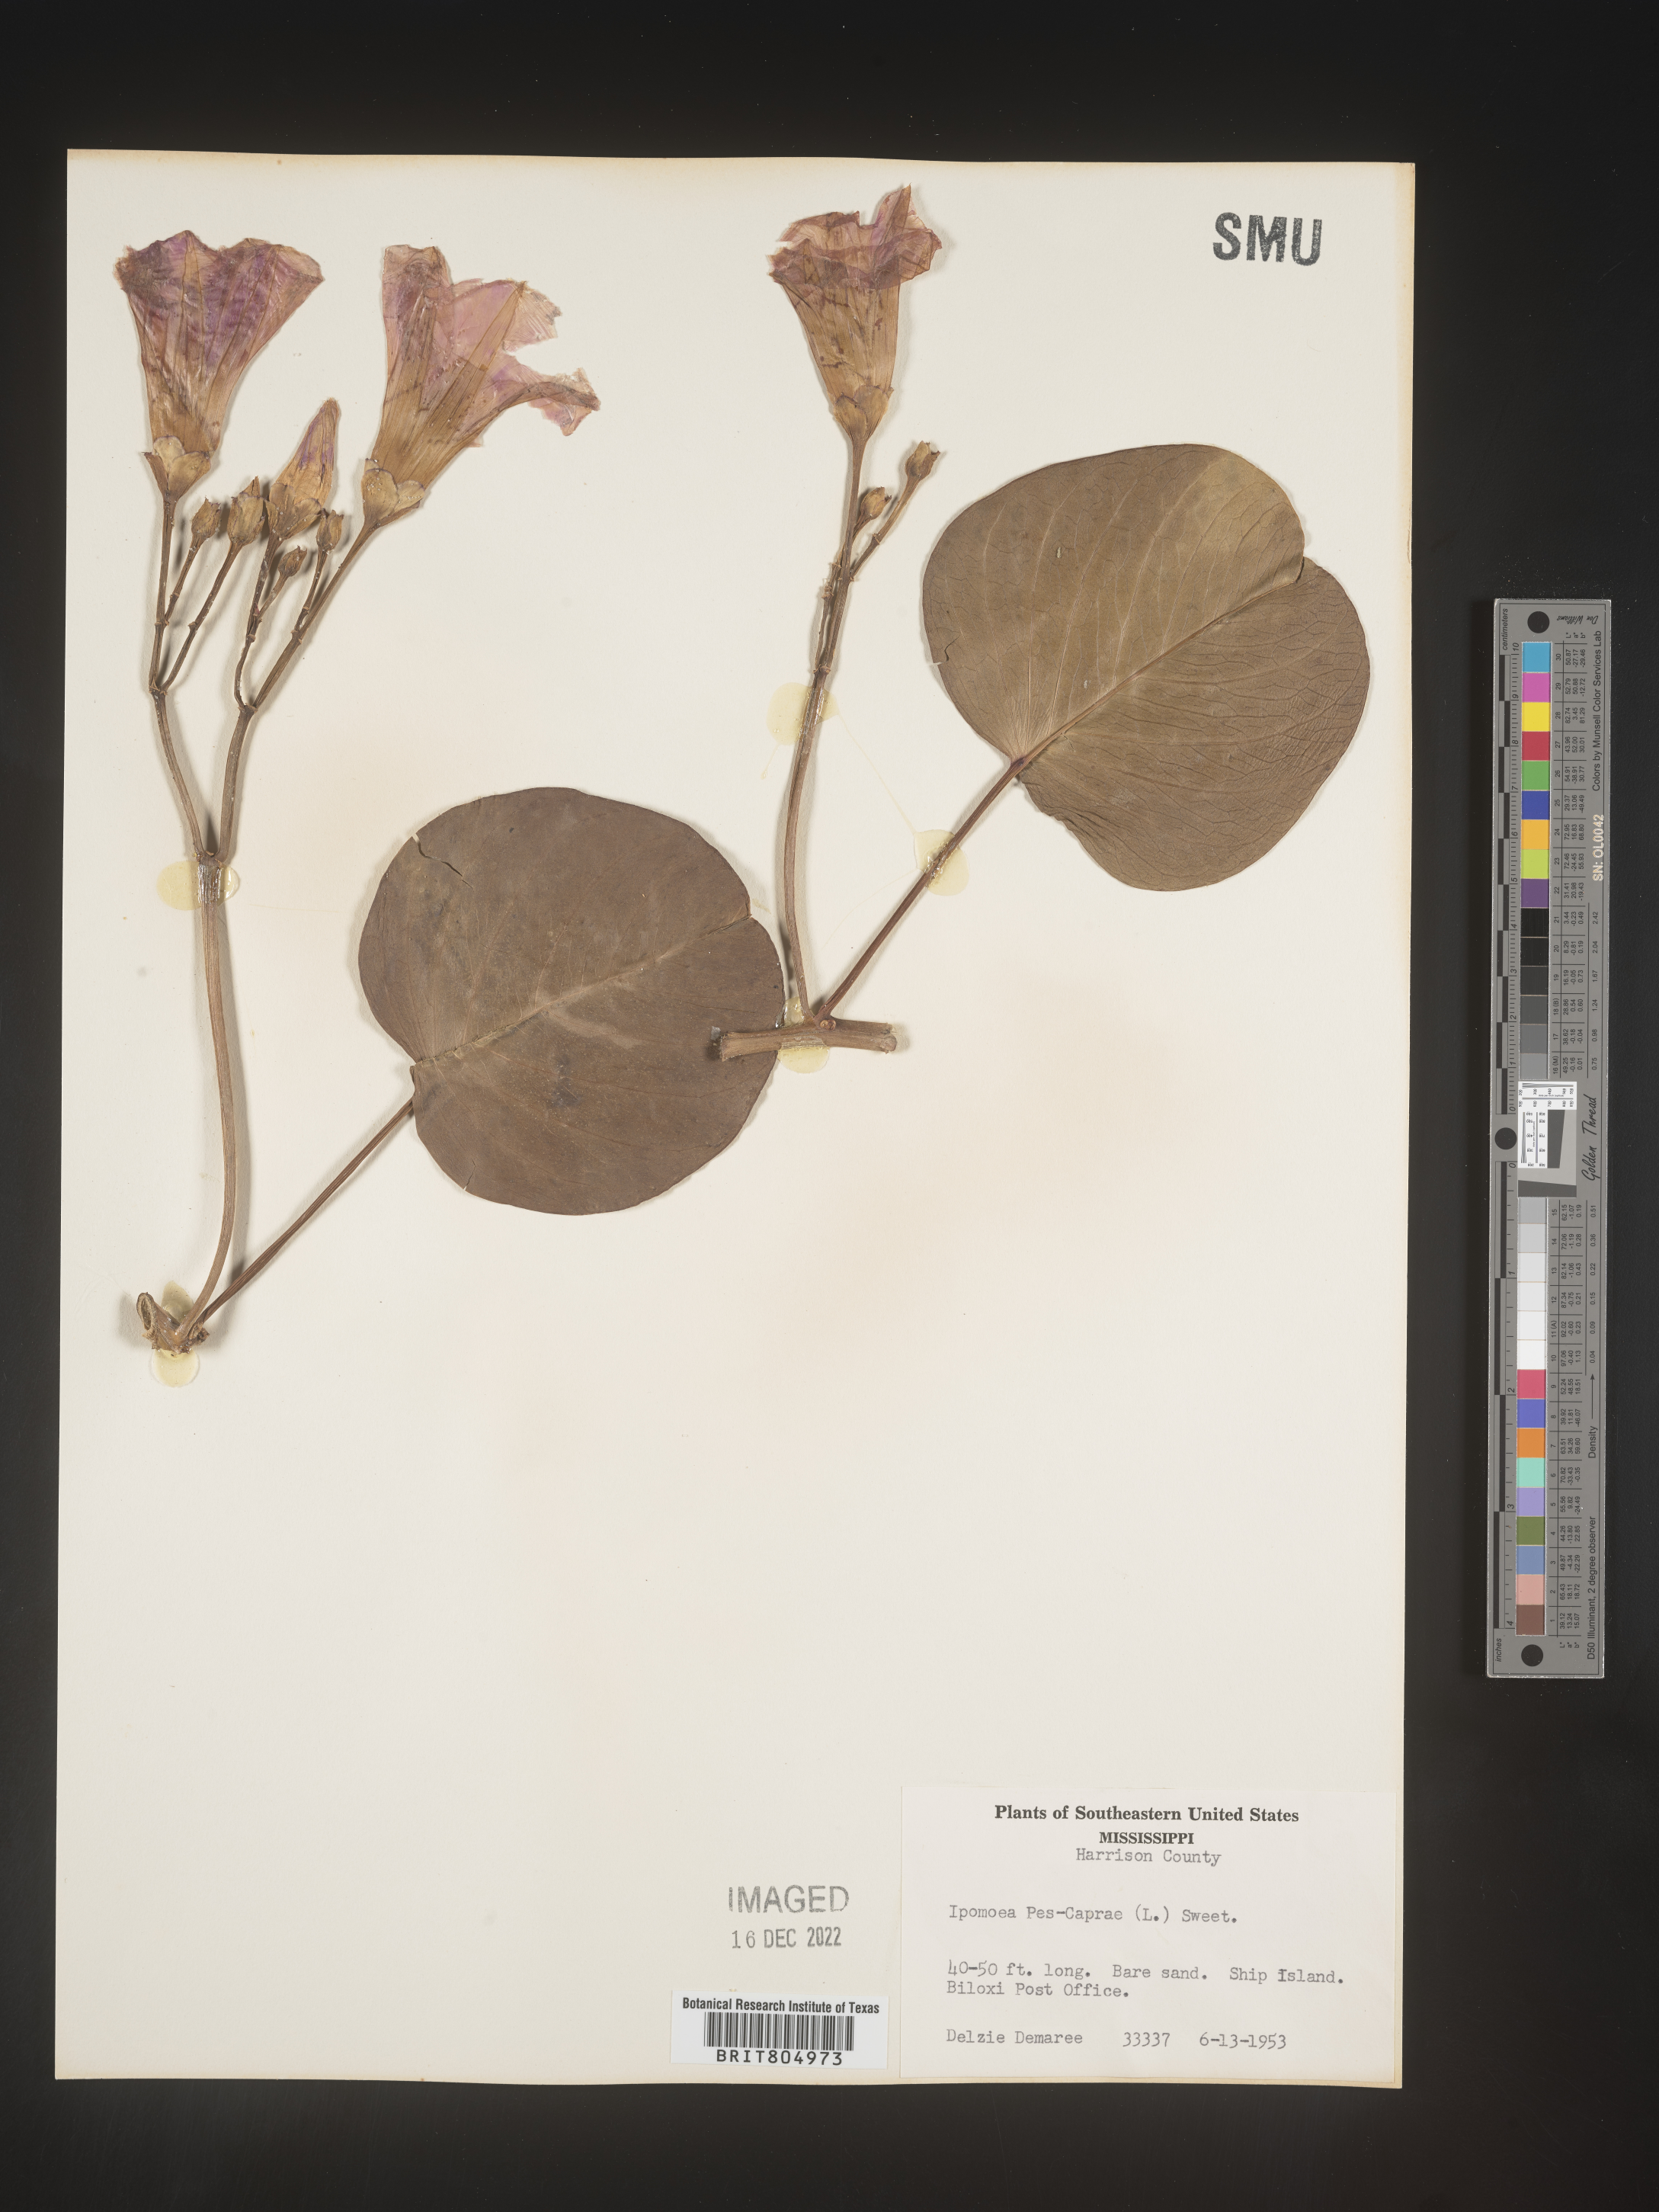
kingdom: Plantae
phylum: Tracheophyta
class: Magnoliopsida
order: Solanales
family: Convolvulaceae
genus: Ipomoea
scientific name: Ipomoea pes-caprae
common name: Beach morning glory
